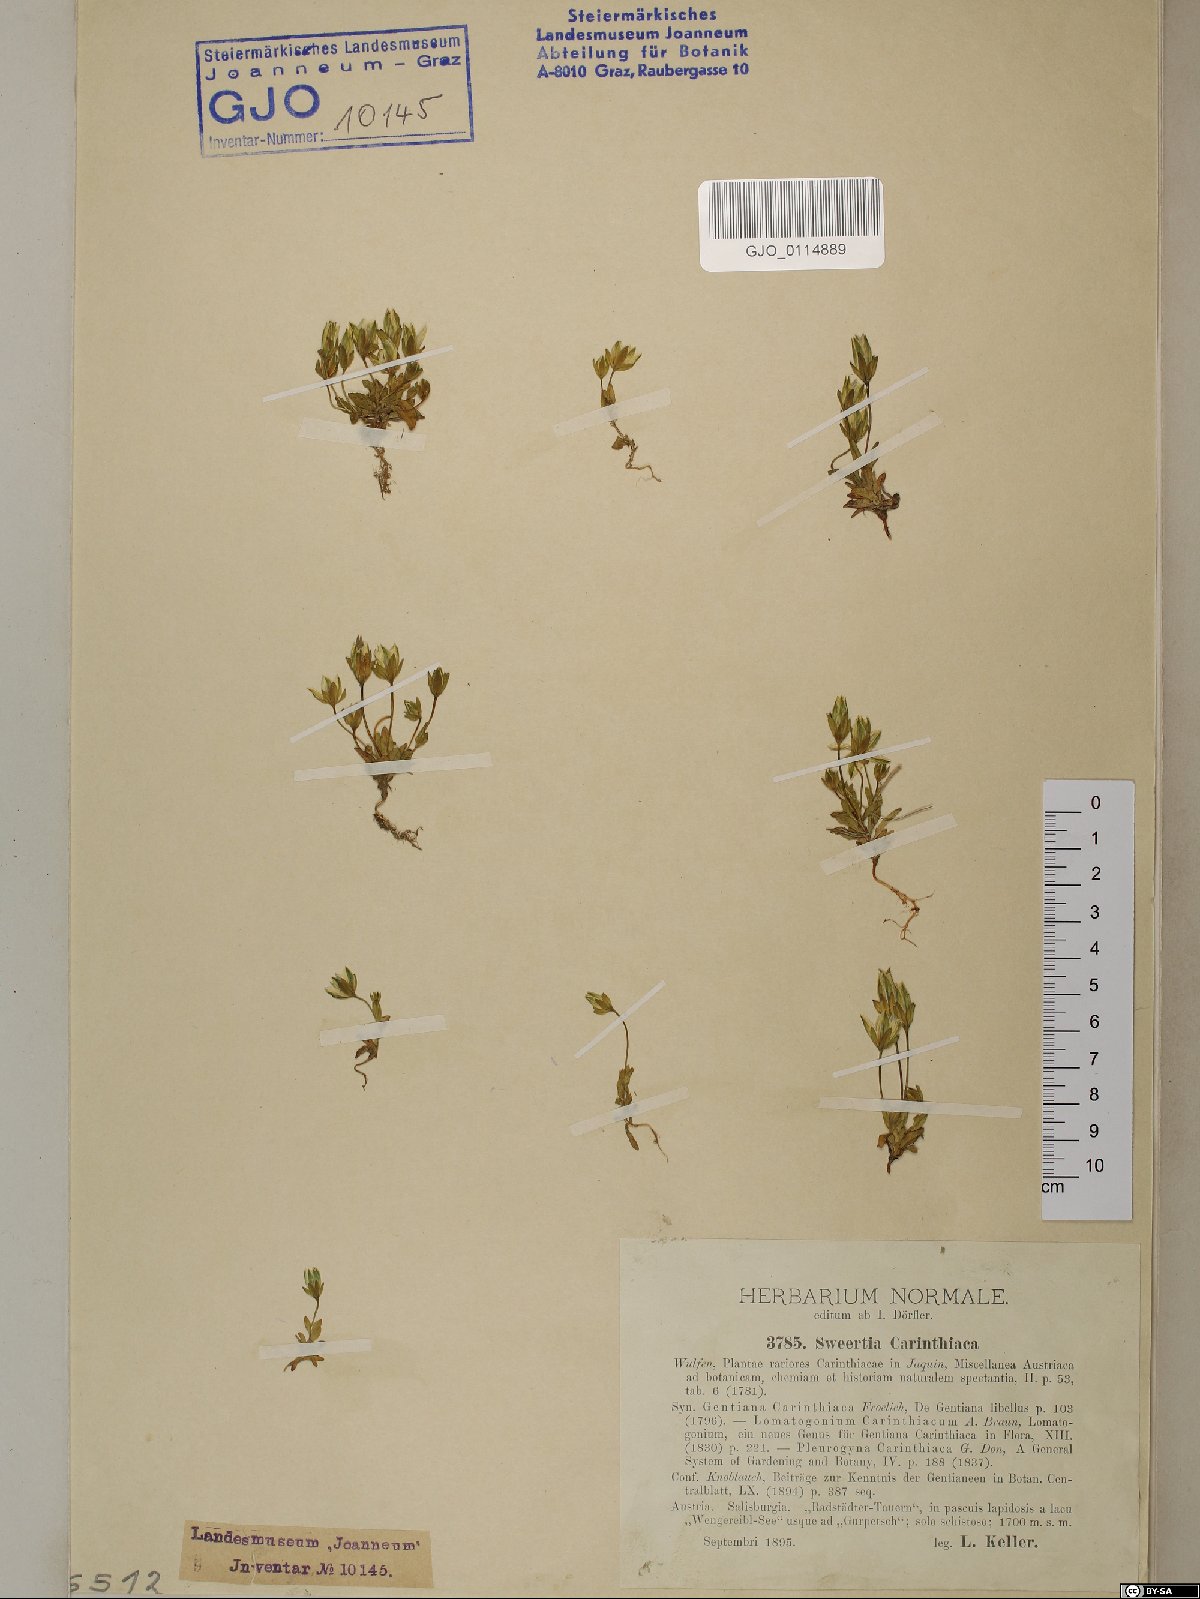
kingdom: Plantae
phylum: Tracheophyta
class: Magnoliopsida
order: Gentianales
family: Gentianaceae
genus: Lomatogonium
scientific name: Lomatogonium carinthiacum
